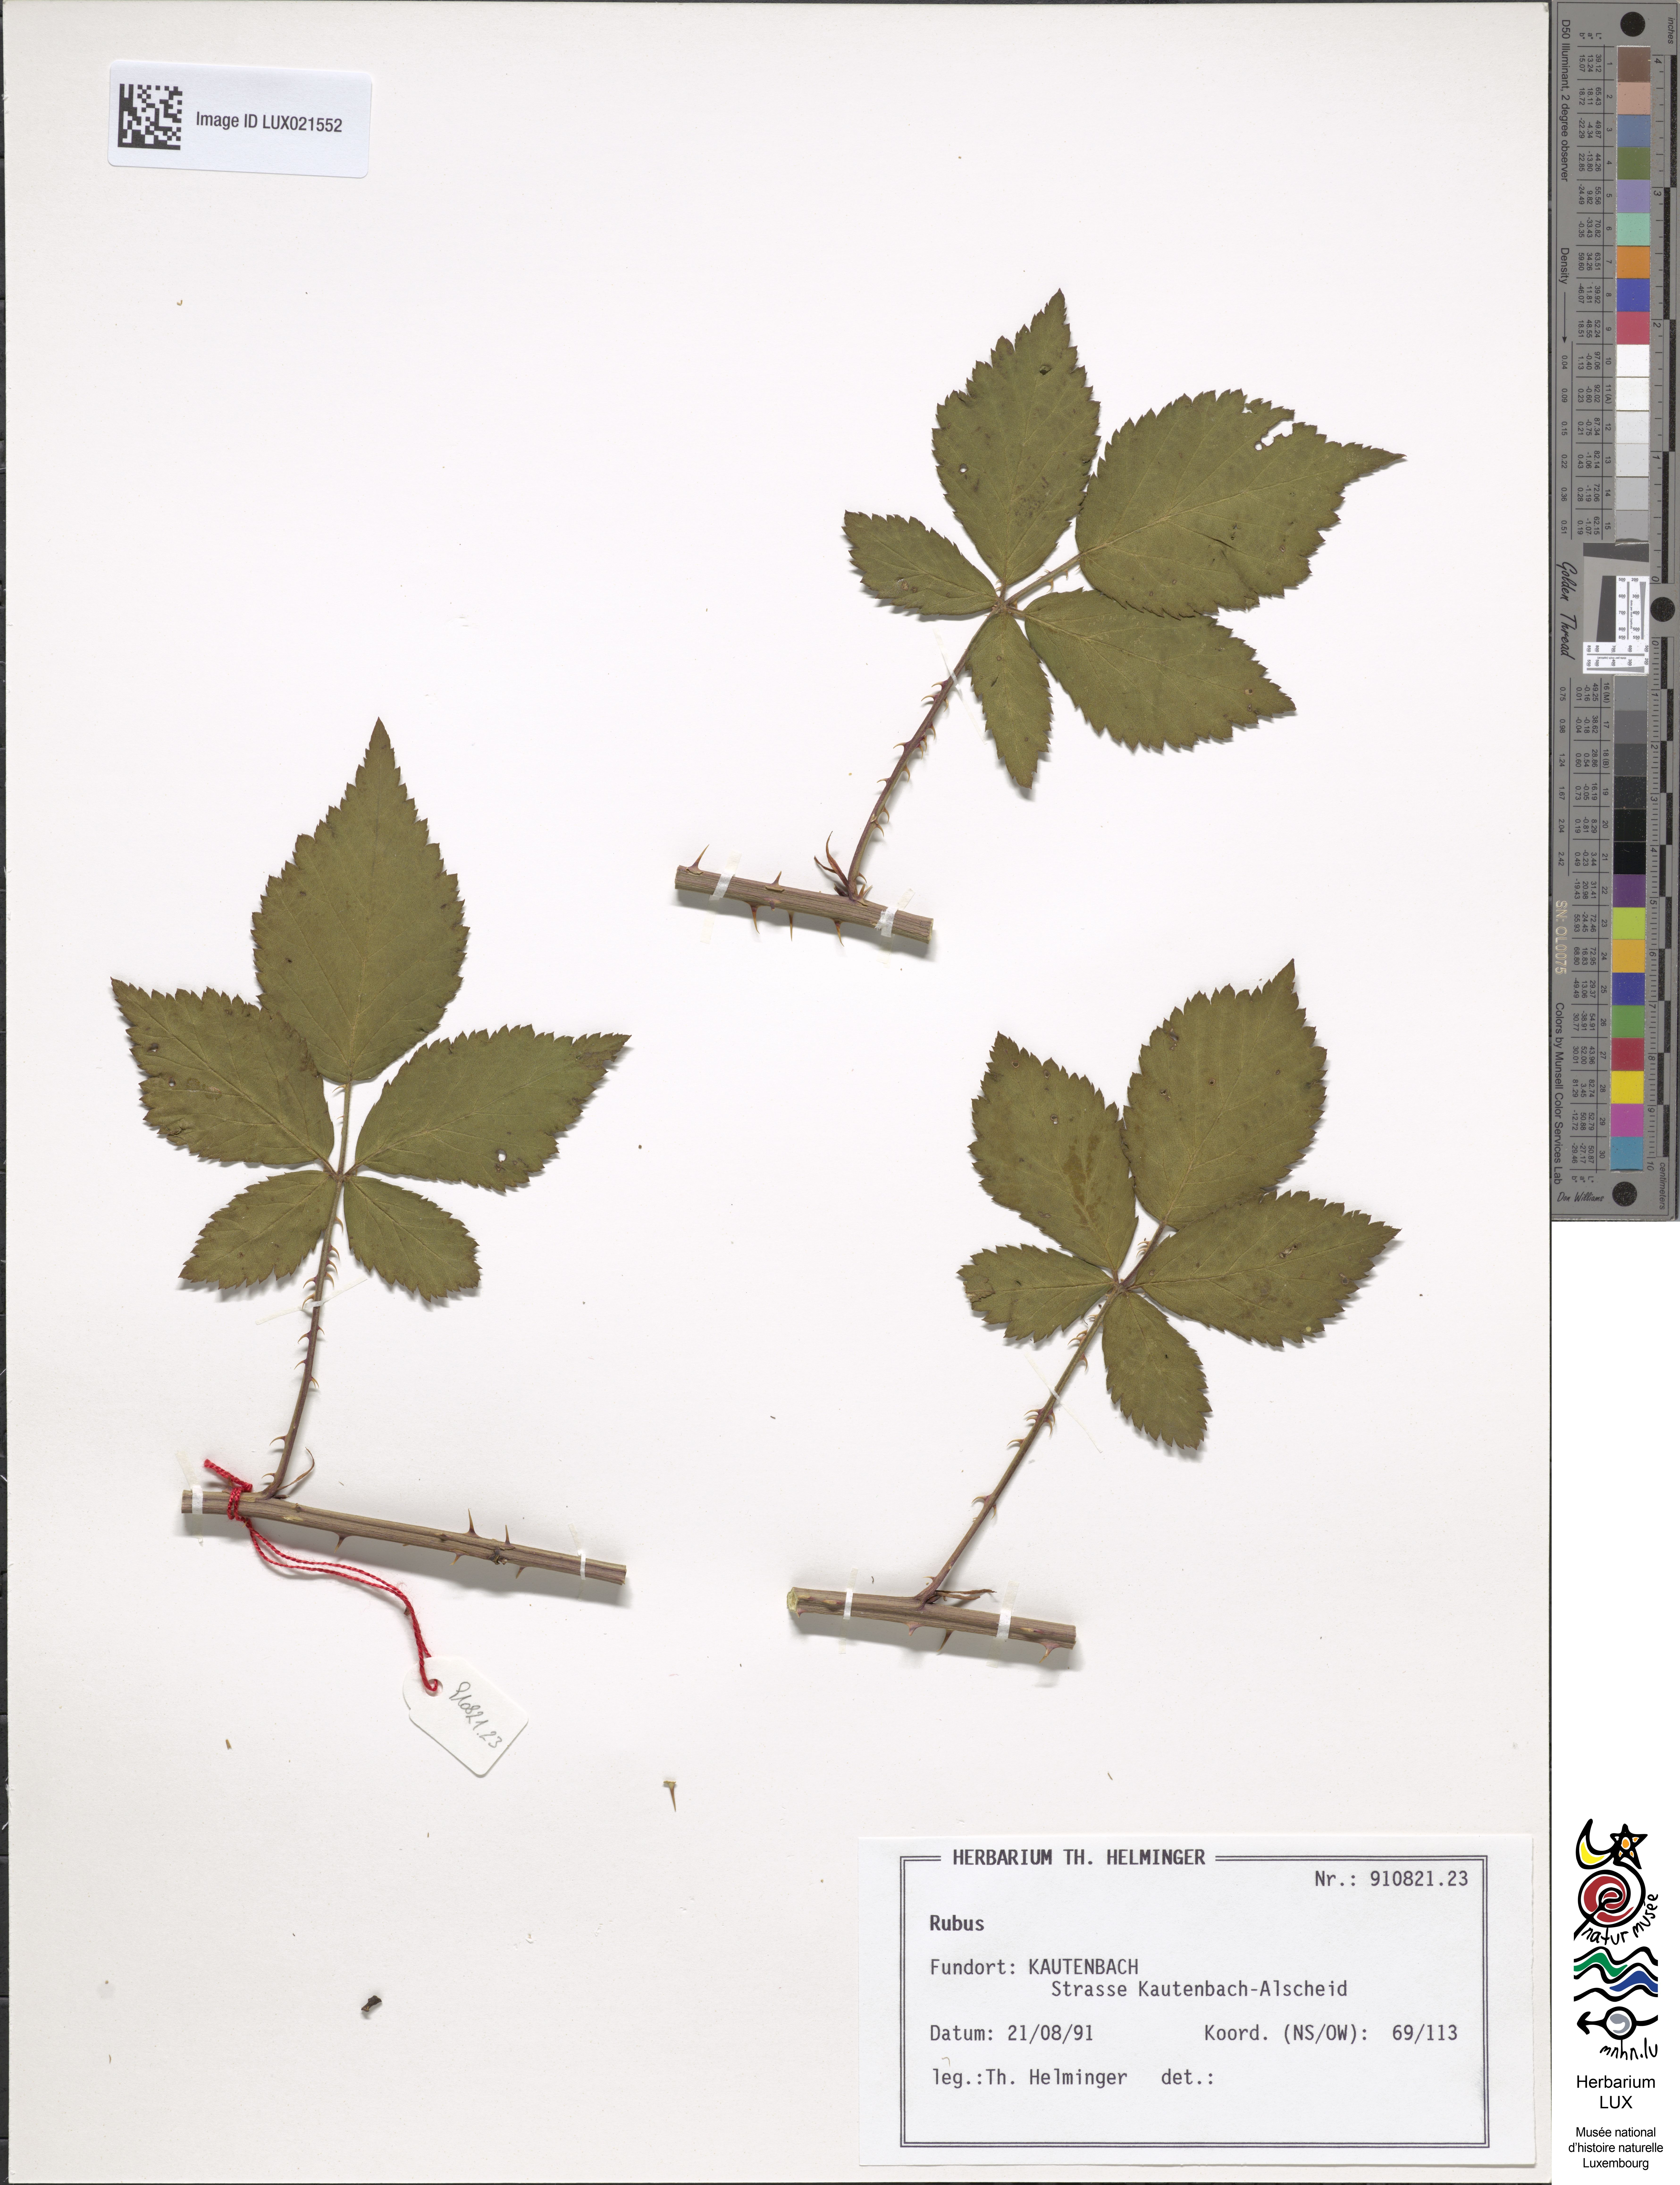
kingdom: Plantae
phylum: Tracheophyta
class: Magnoliopsida
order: Rosales
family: Rosaceae
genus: Rubus
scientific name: Rubus
